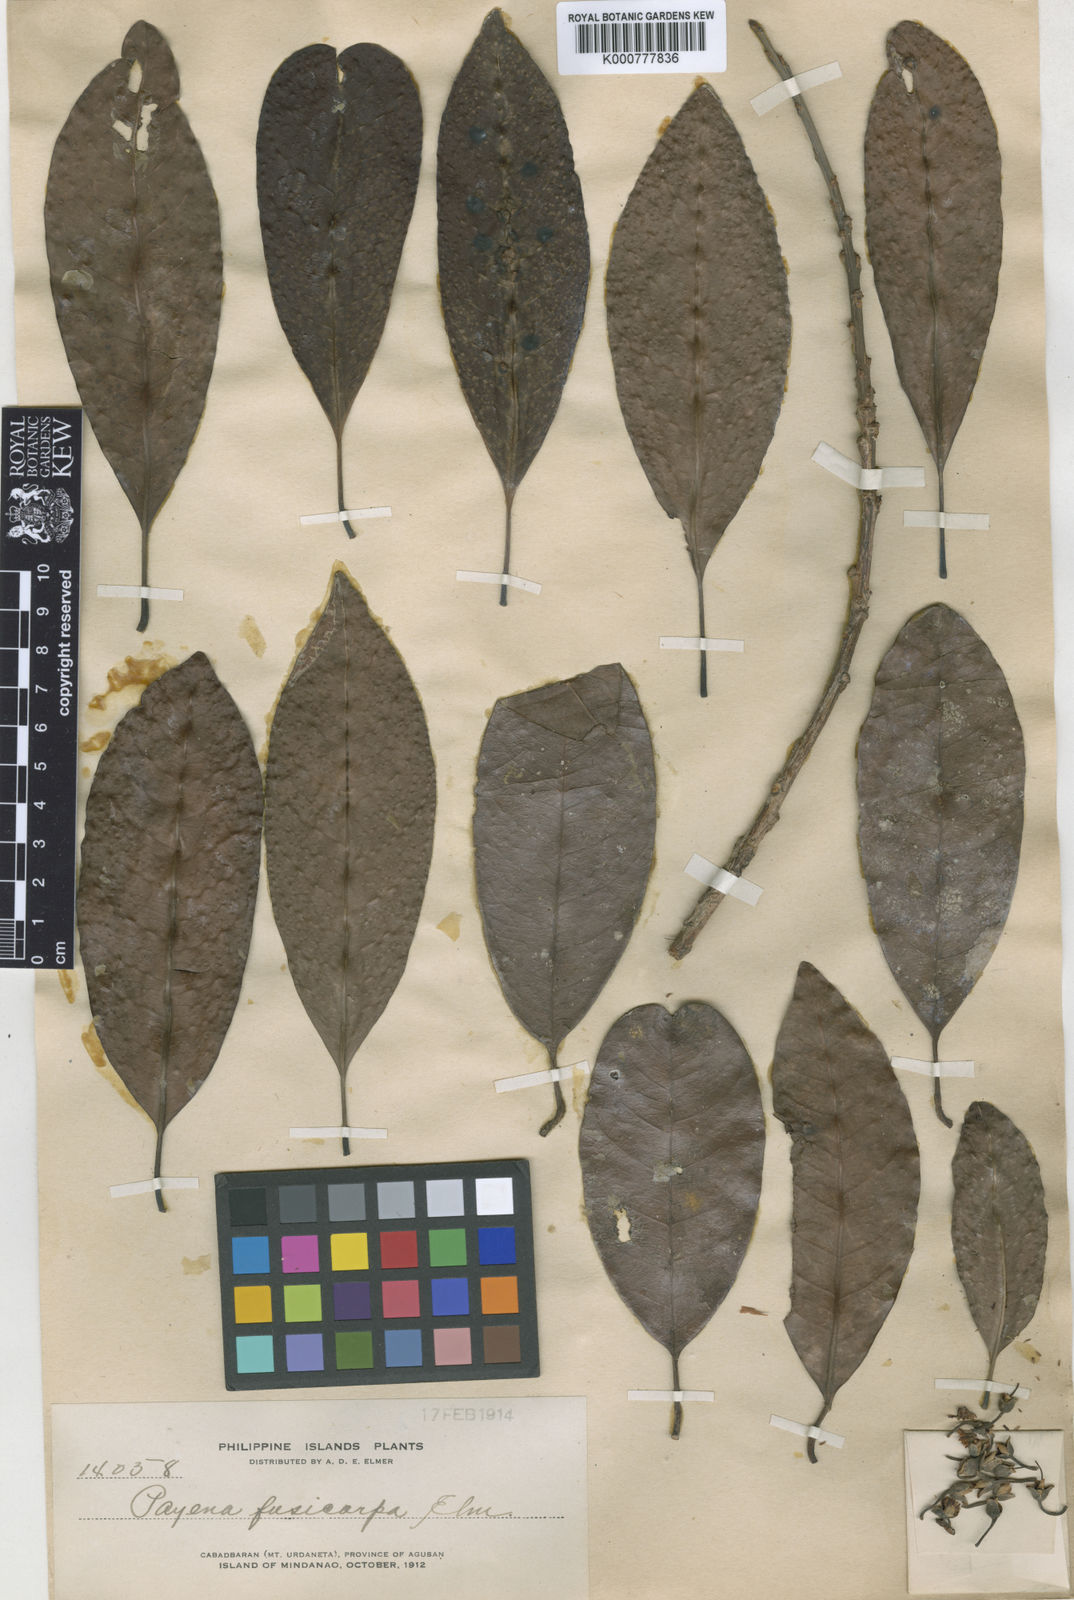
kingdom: Plantae
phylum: Tracheophyta
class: Magnoliopsida
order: Ericales
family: Sapotaceae
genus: Madhuca
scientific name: Madhuca burckiana
